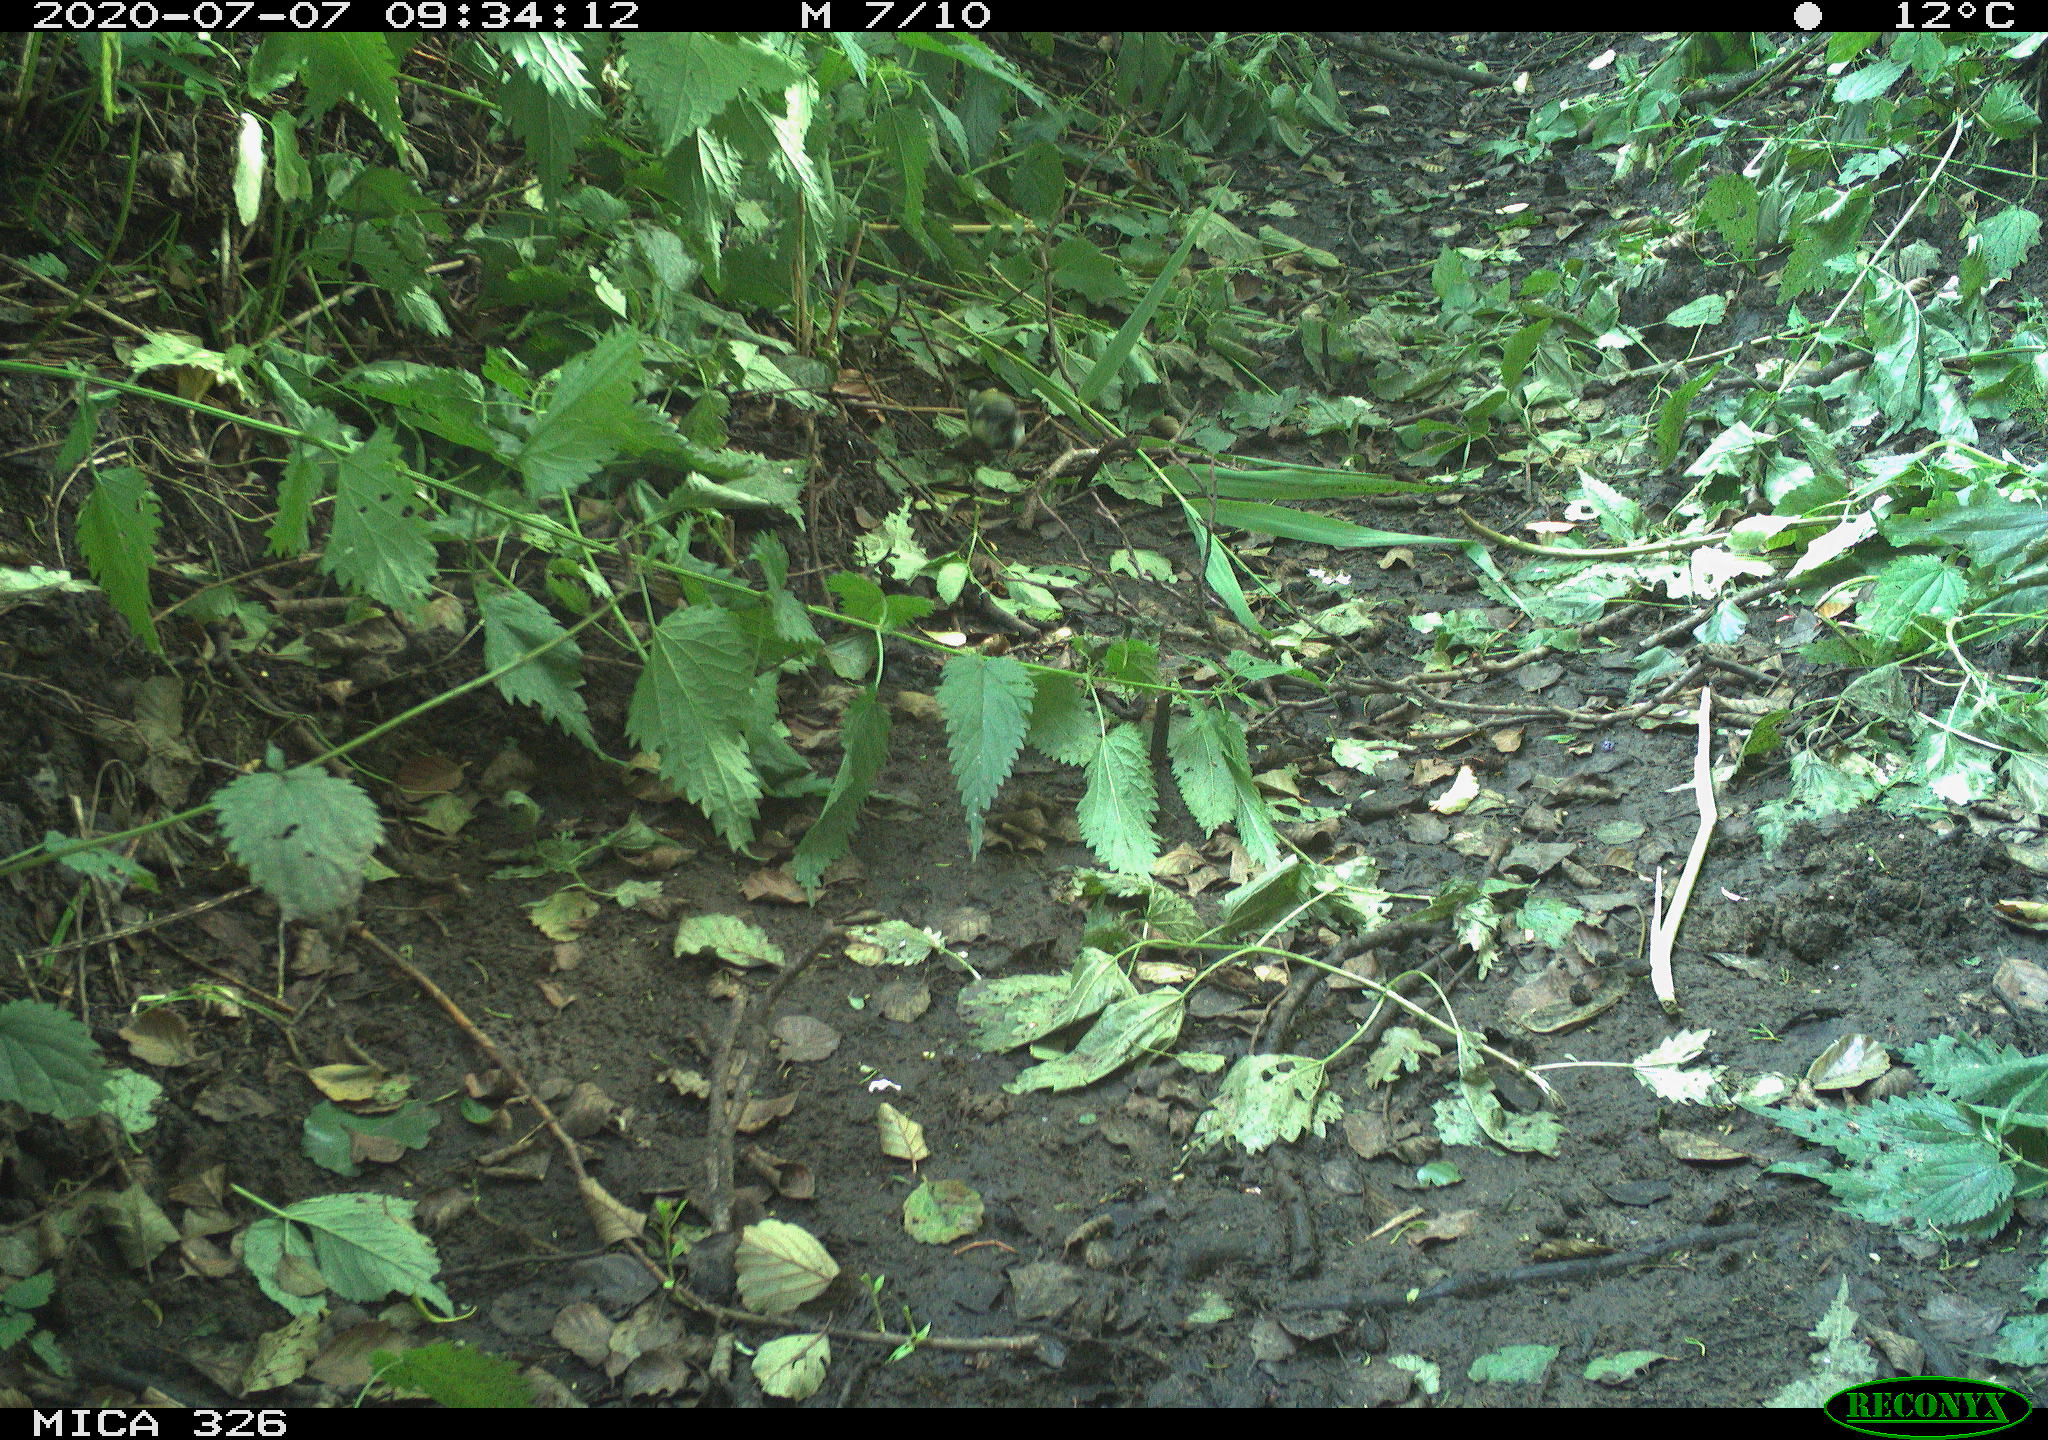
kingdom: Animalia
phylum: Chordata
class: Aves
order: Passeriformes
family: Paridae
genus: Parus
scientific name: Parus major
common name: Great tit
